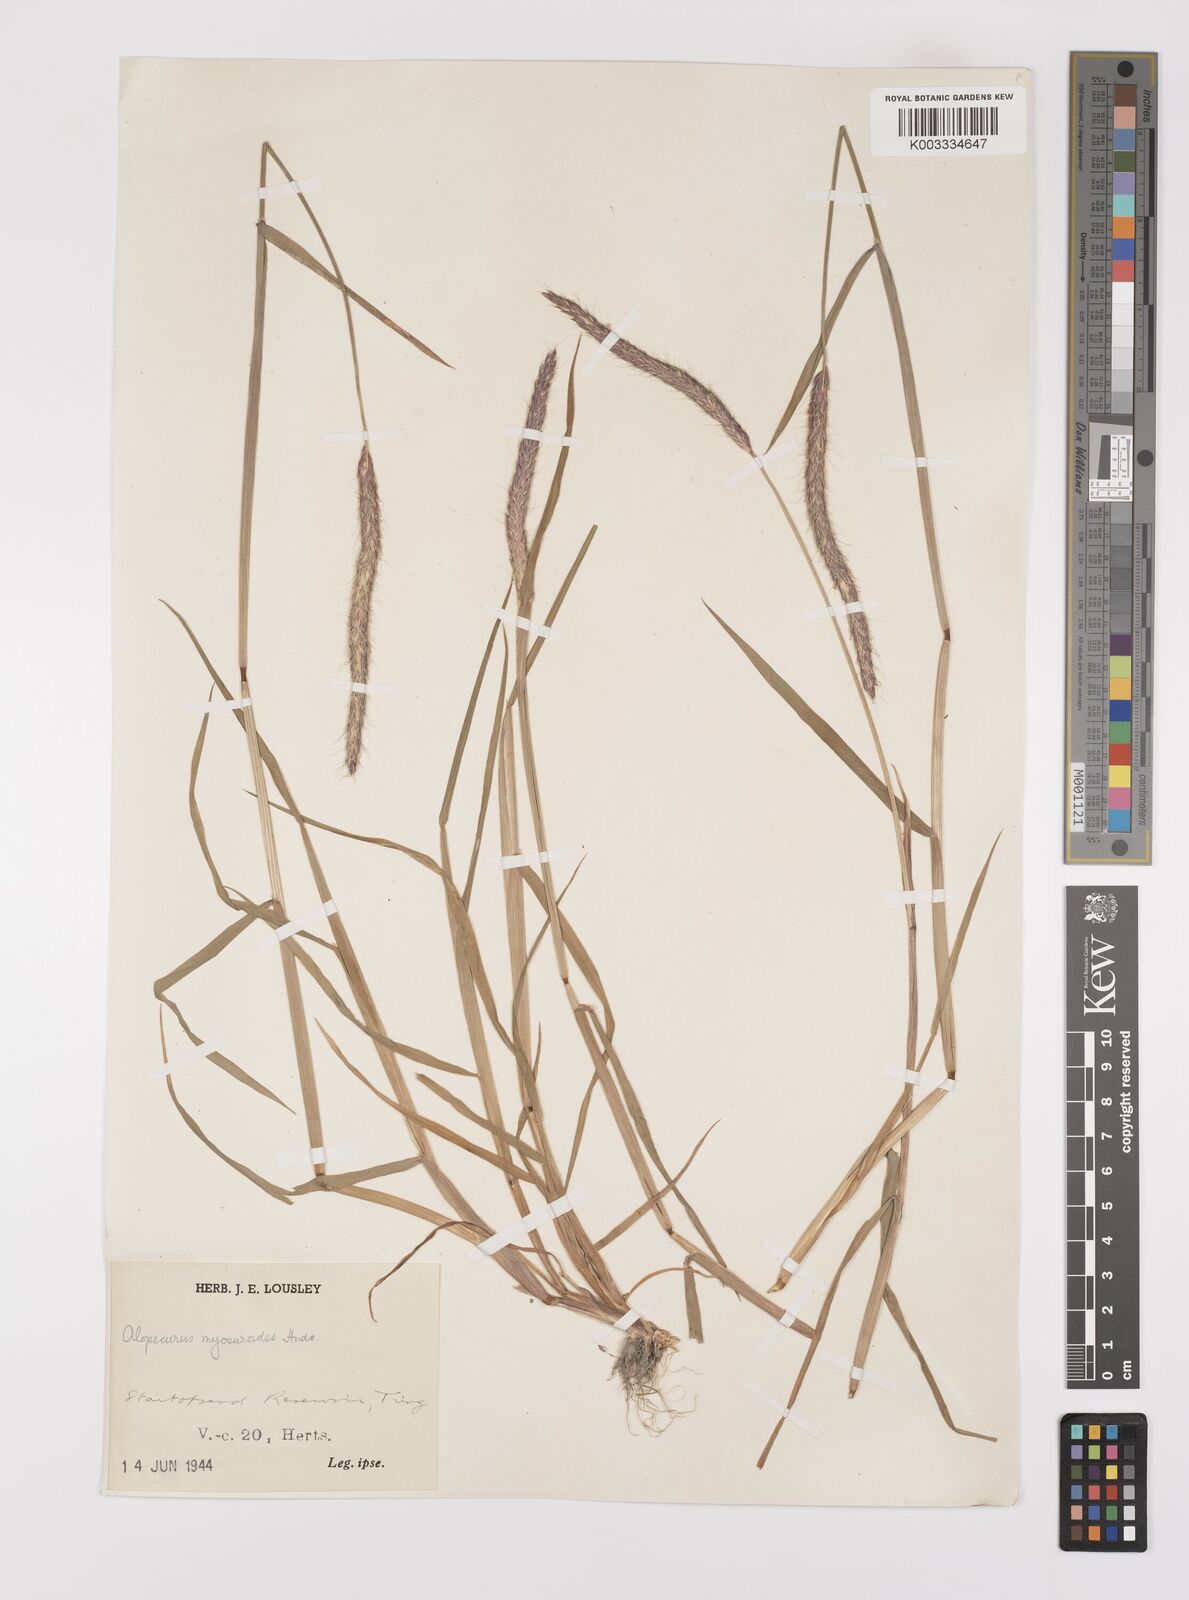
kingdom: Plantae
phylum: Tracheophyta
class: Liliopsida
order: Poales
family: Poaceae
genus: Alopecurus
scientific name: Alopecurus myosuroides
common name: Black-grass
